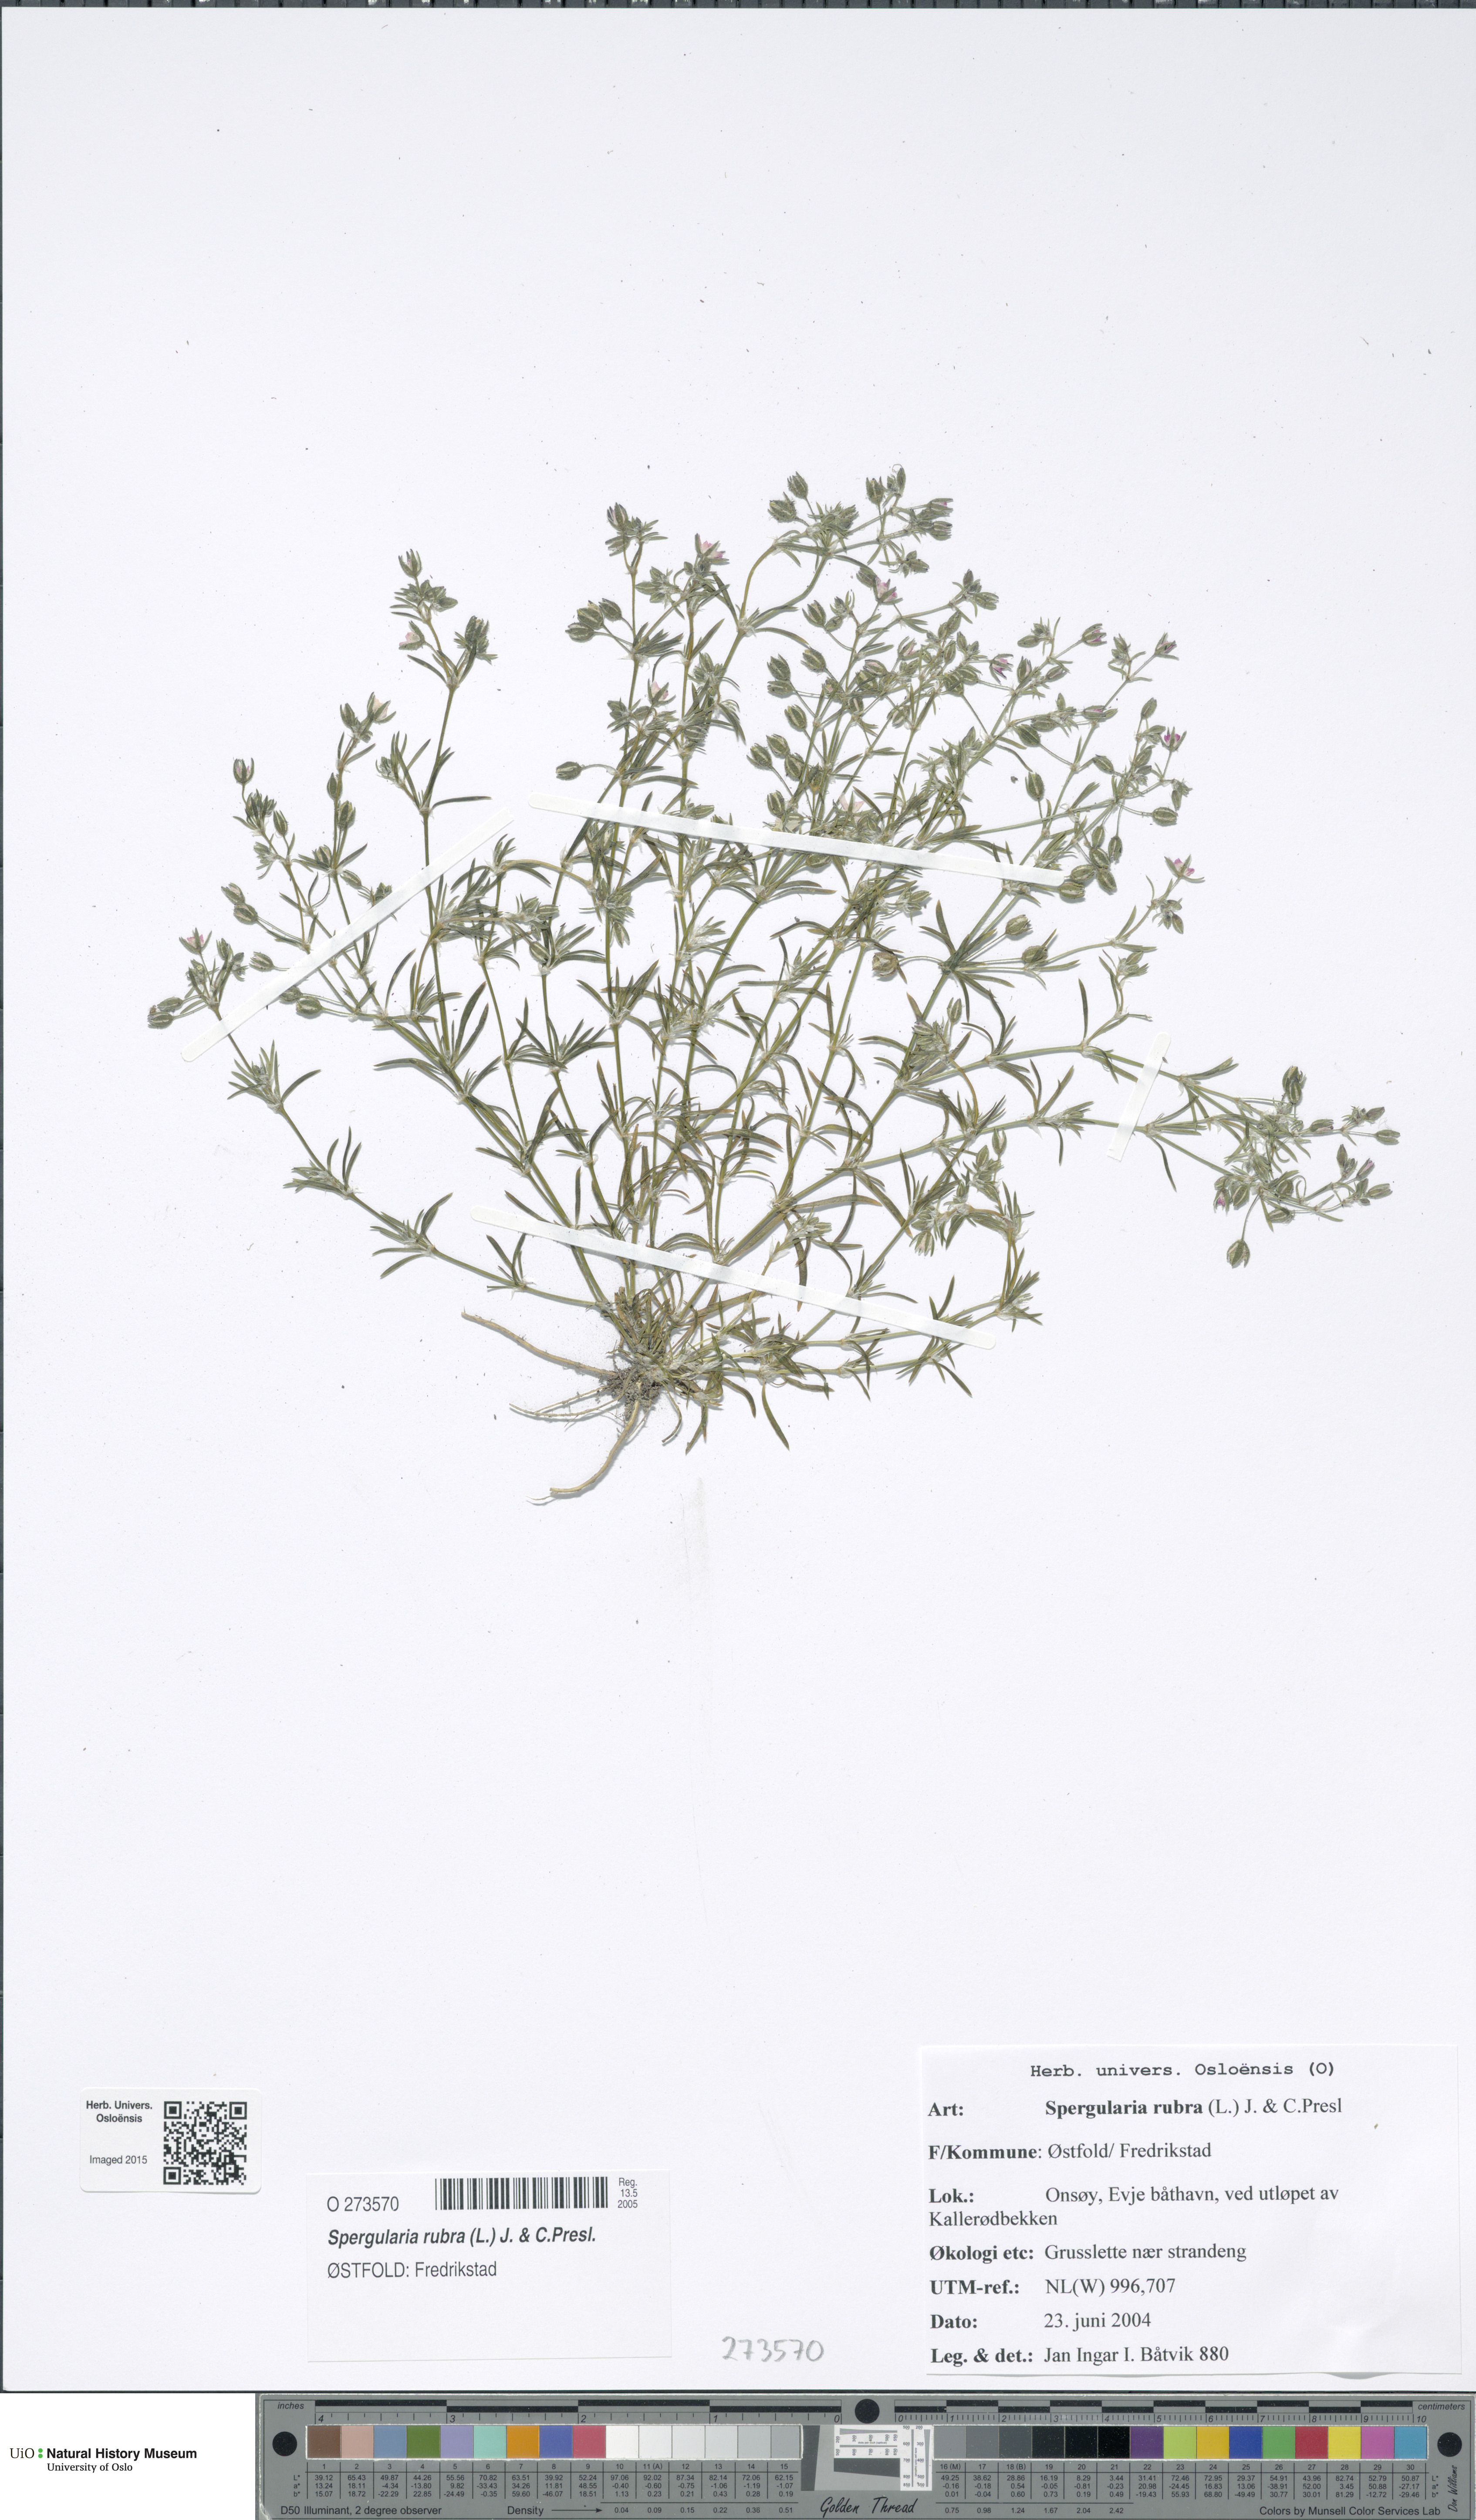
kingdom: Plantae
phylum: Tracheophyta
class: Magnoliopsida
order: Caryophyllales
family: Caryophyllaceae
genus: Spergularia
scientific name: Spergularia rubra
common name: Red sand-spurrey
